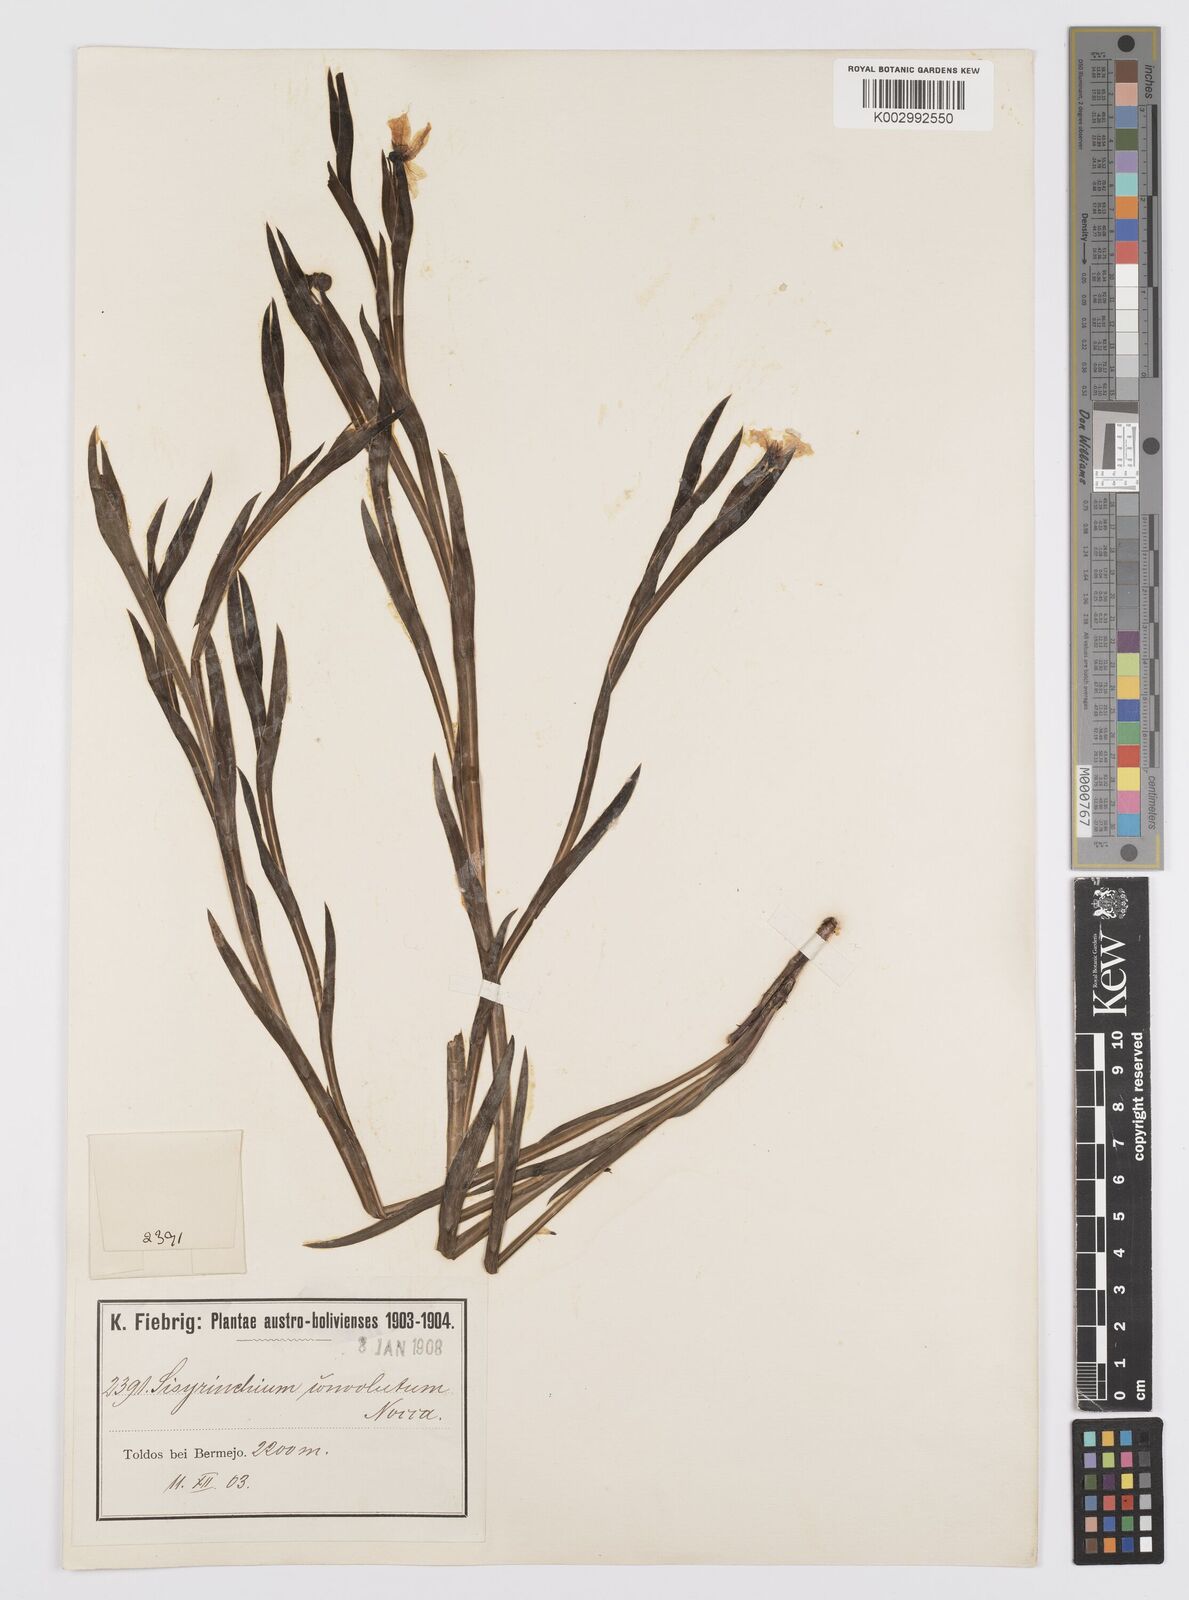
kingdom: Plantae
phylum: Tracheophyta
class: Liliopsida
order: Asparagales
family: Iridaceae
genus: Sisyrinchium
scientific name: Sisyrinchium convolutum
